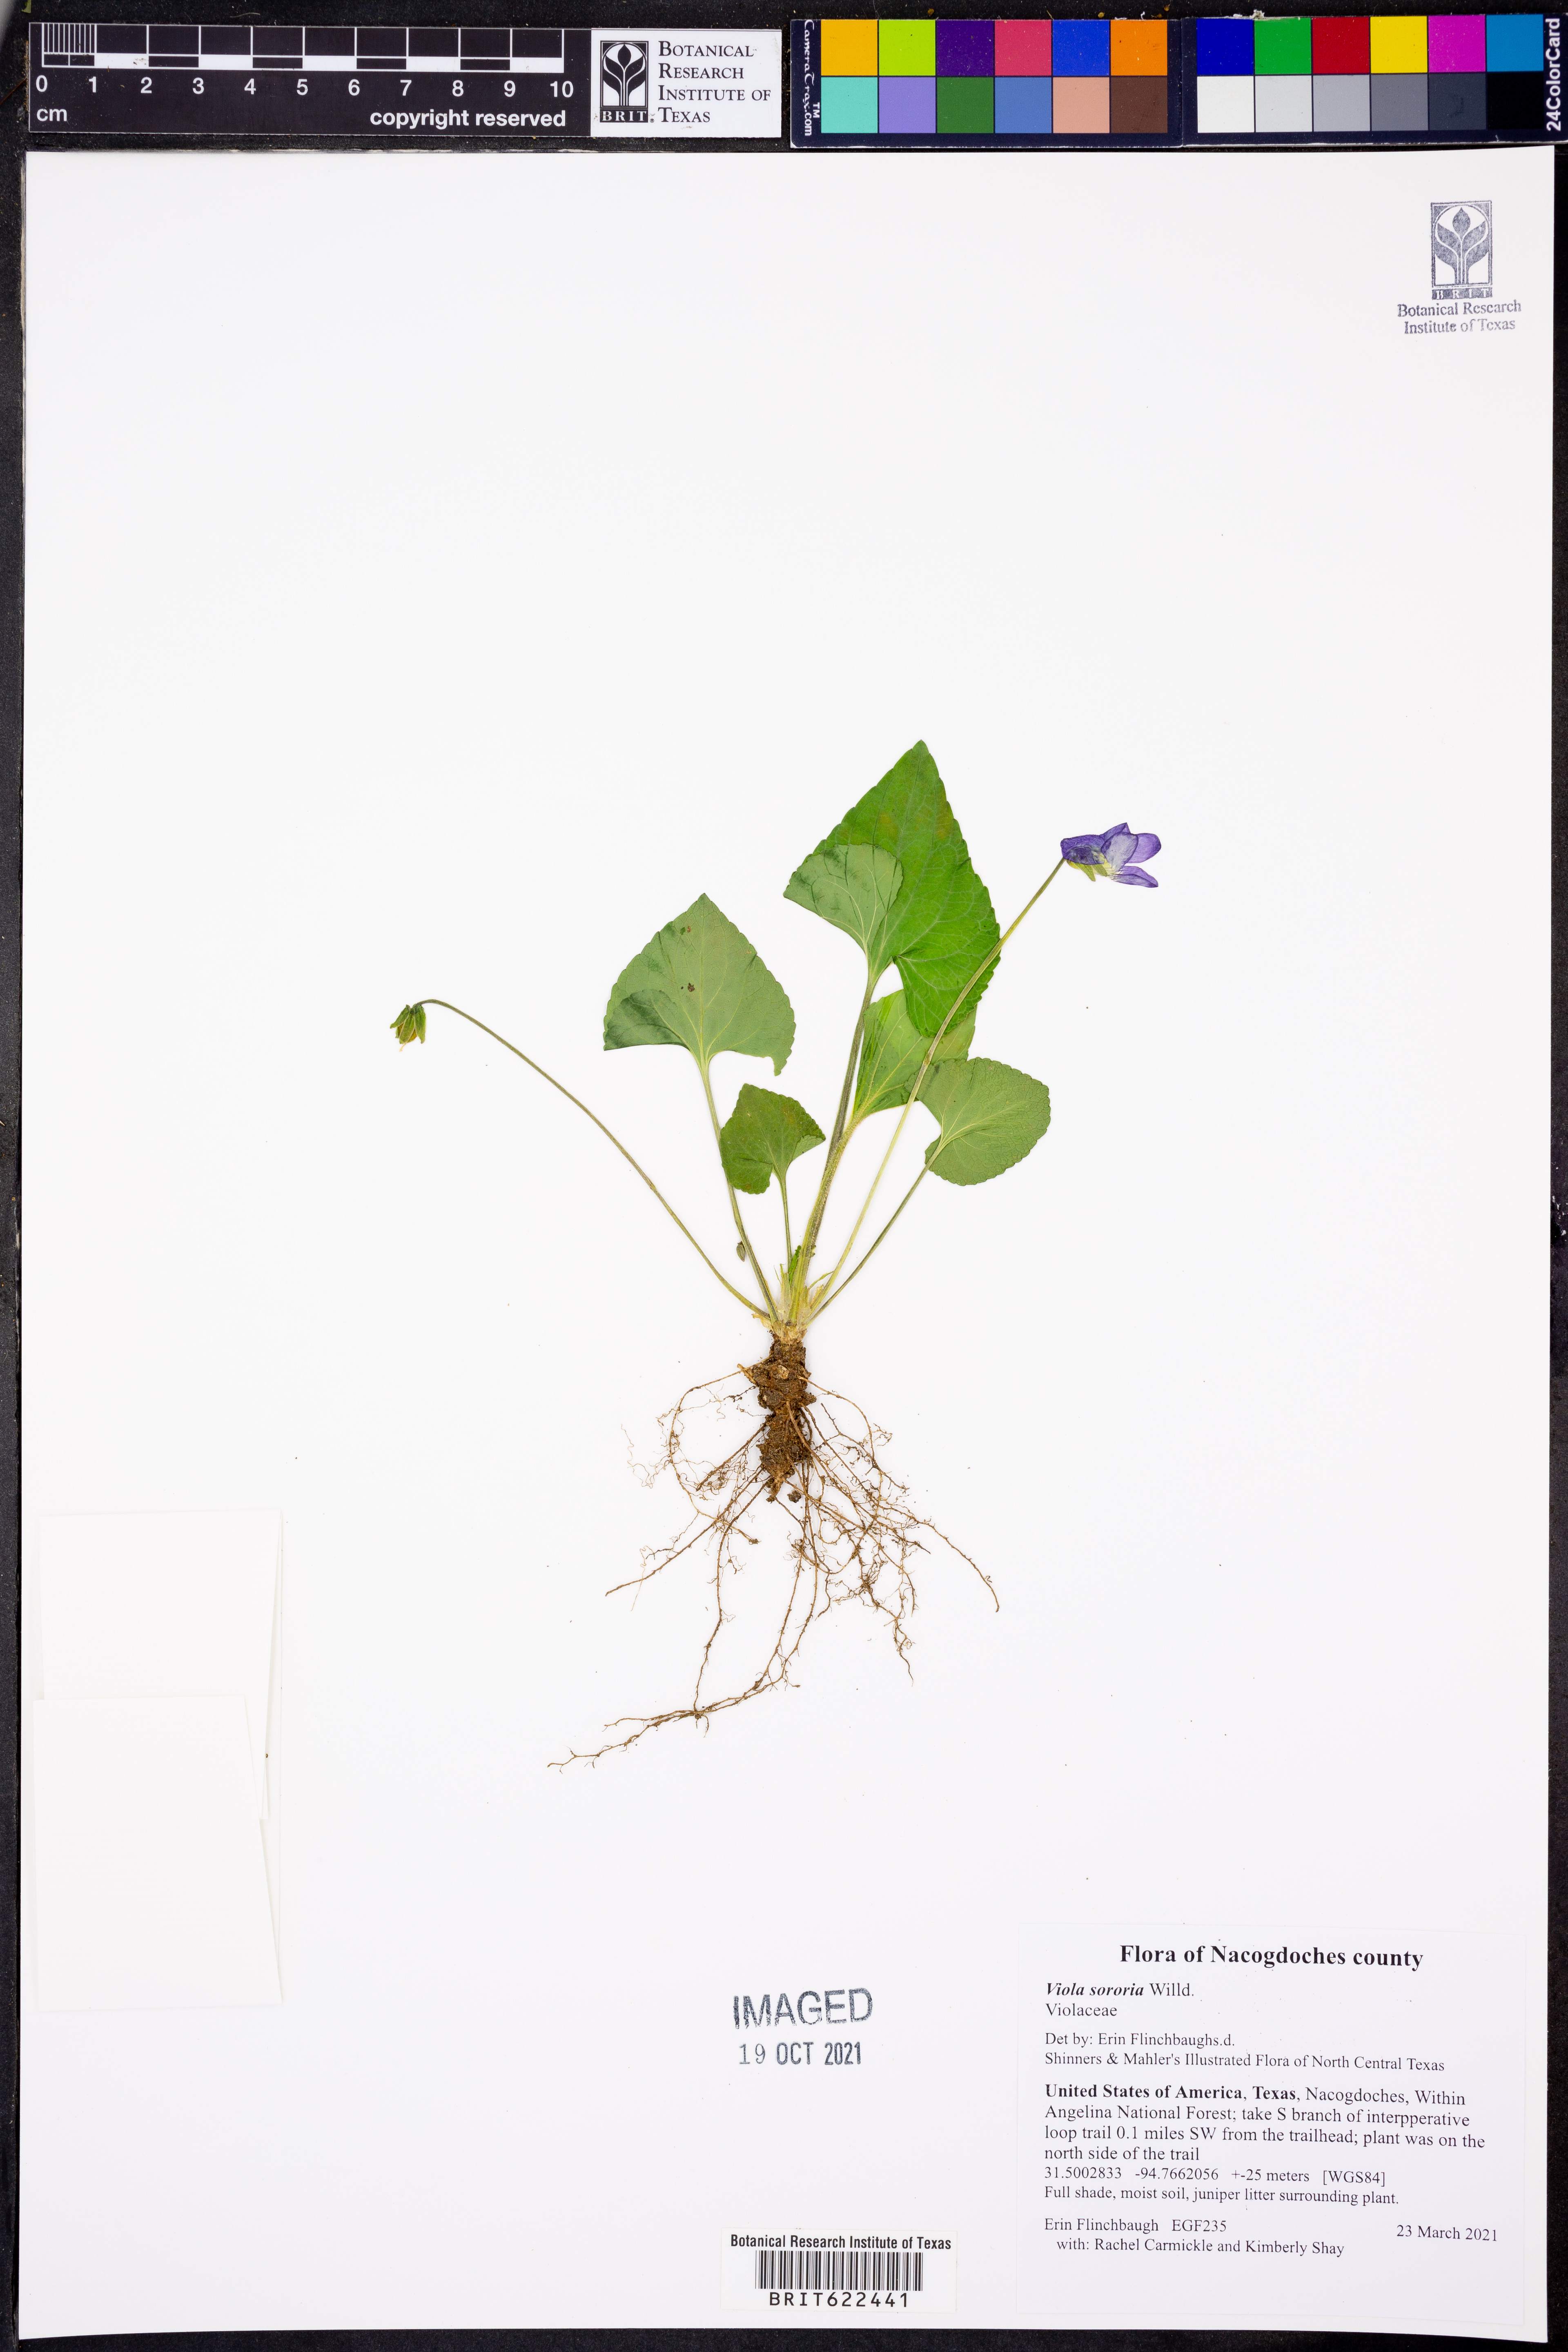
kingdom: Plantae
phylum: Tracheophyta
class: Magnoliopsida
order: Malpighiales
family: Violaceae
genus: Viola
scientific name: Viola sororia
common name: Dooryard violet
